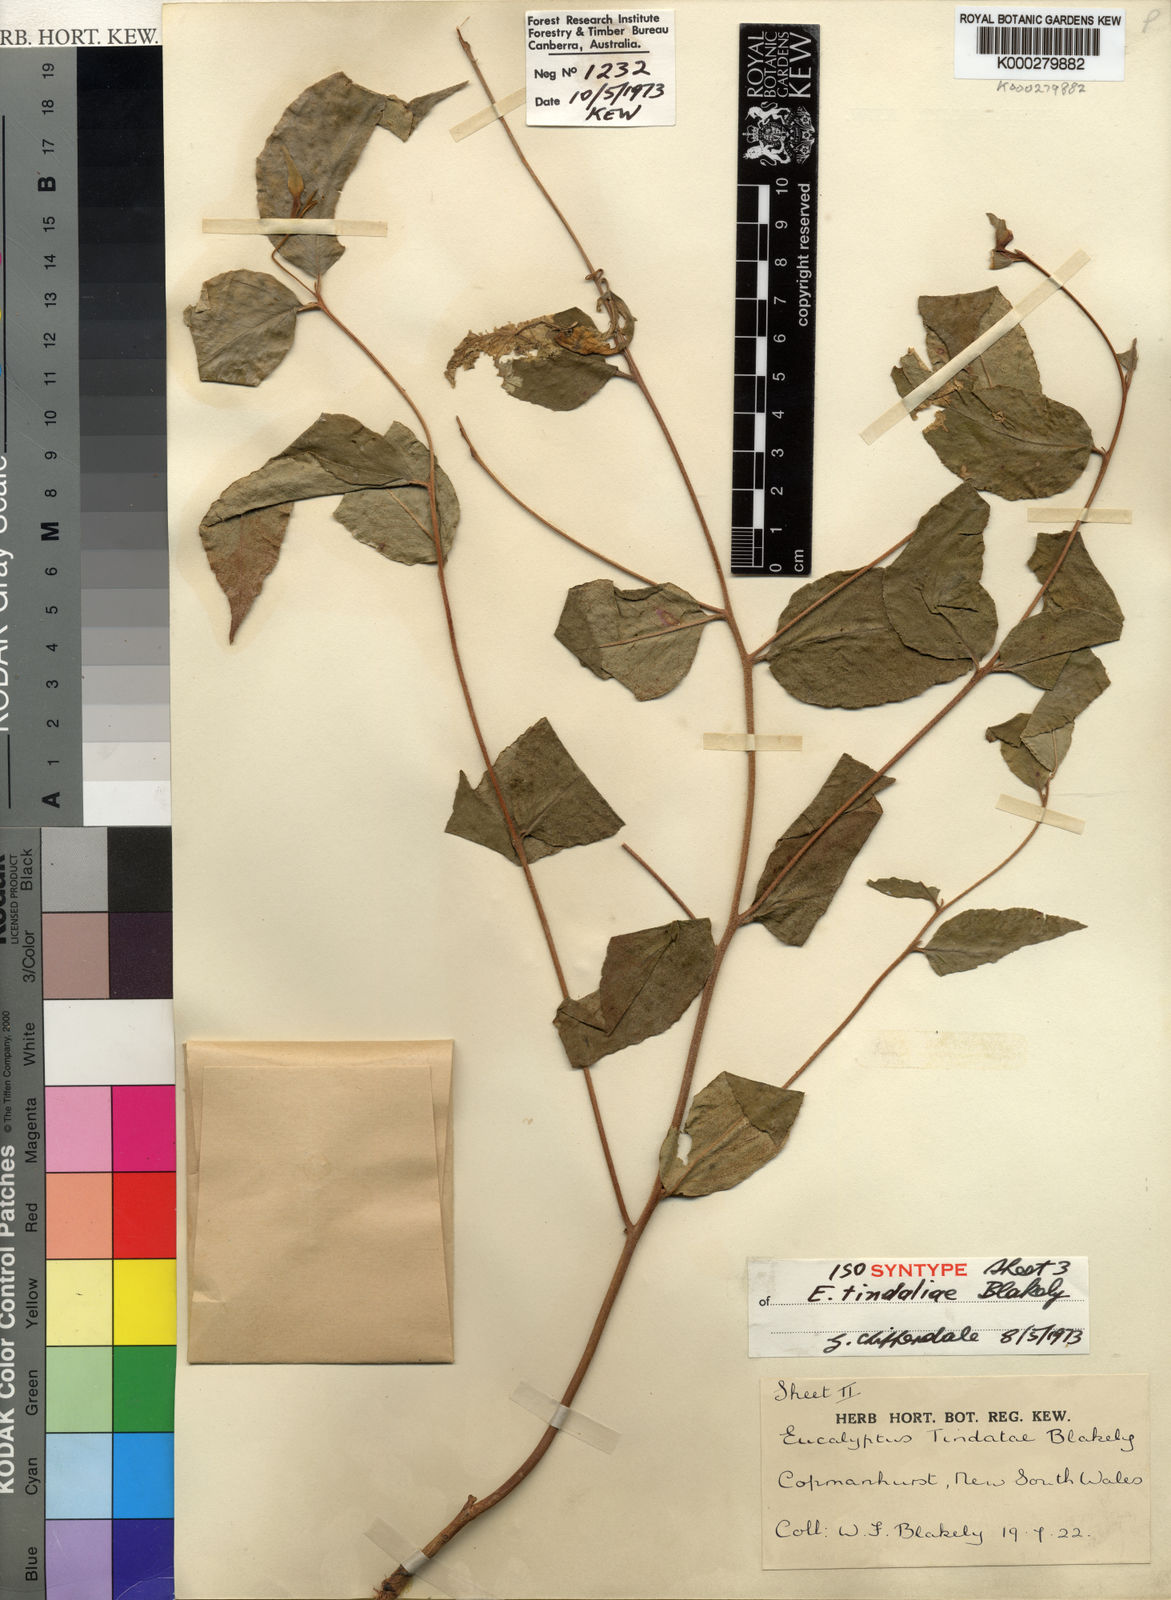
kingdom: Plantae
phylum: Tracheophyta
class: Magnoliopsida
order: Myrtales
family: Myrtaceae
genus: Eucalyptus
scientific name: Eucalyptus tindaliae
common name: Tindales stringybark
